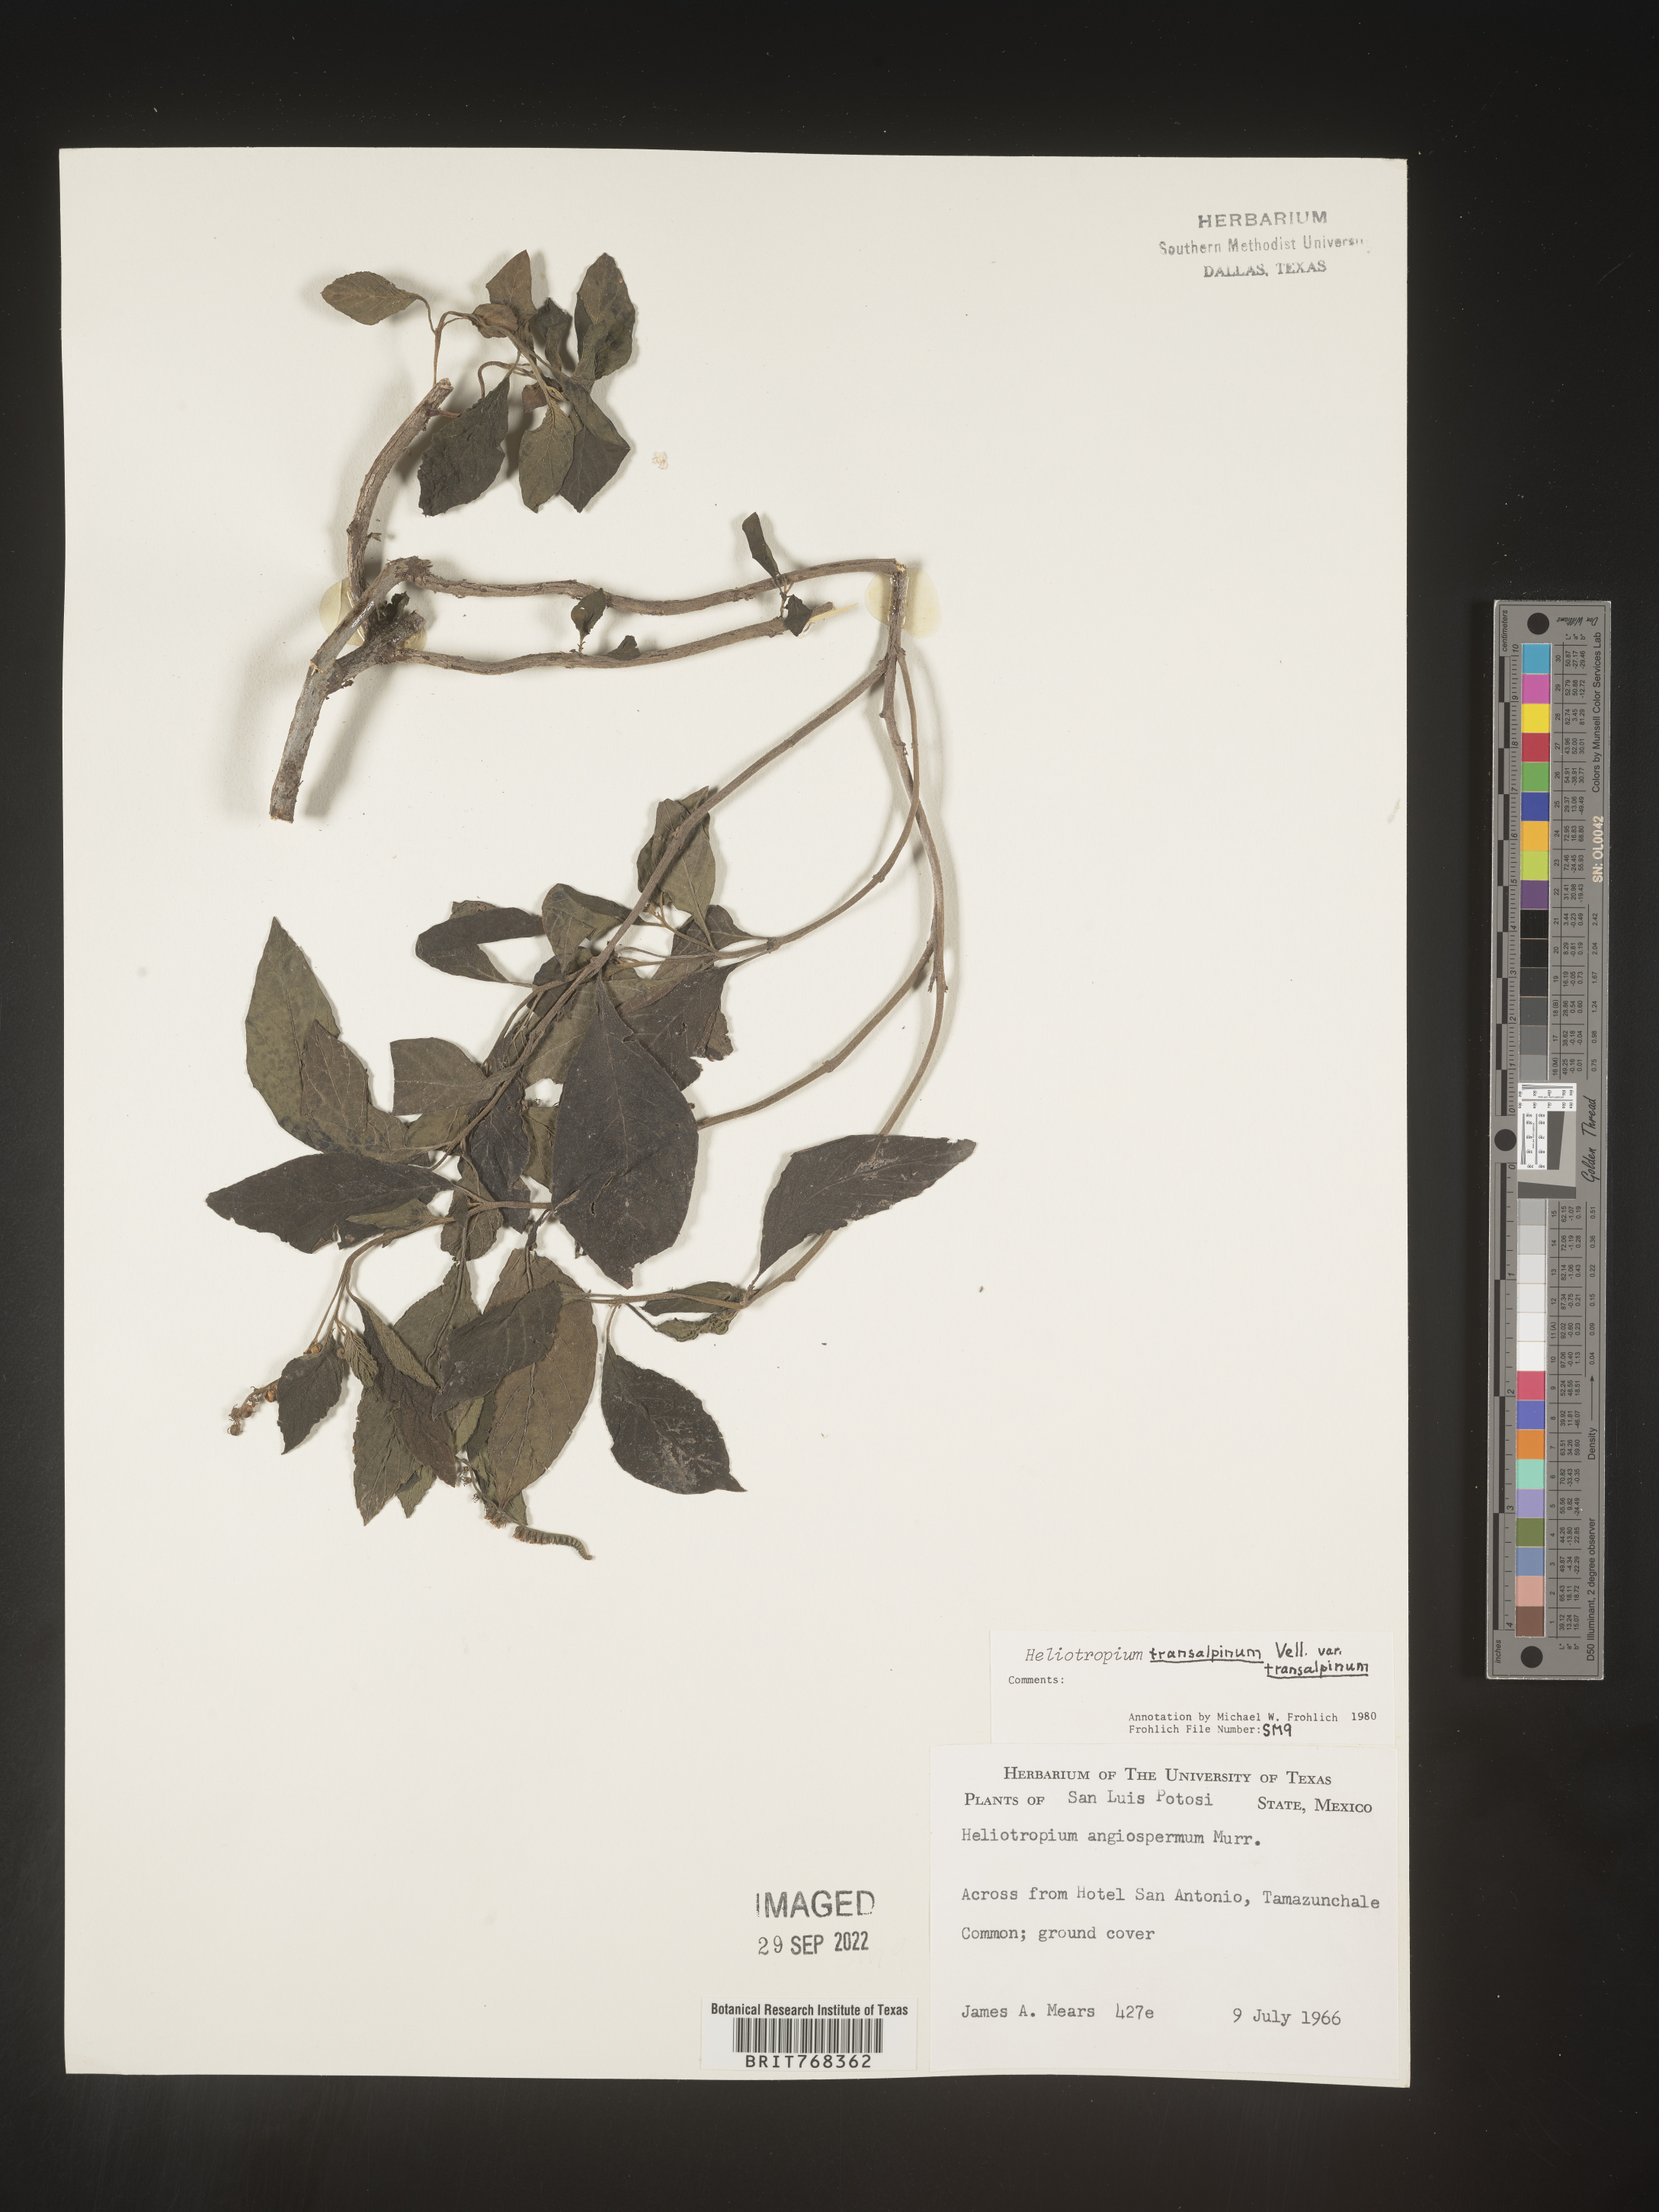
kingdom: Plantae
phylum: Tracheophyta
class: Magnoliopsida
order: Boraginales
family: Heliotropiaceae
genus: Heliotropium
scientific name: Heliotropium
